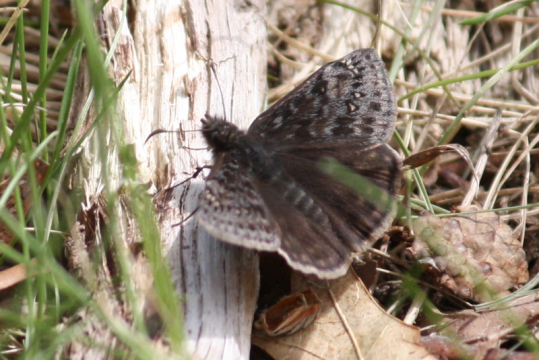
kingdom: Animalia
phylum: Arthropoda
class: Insecta
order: Lepidoptera
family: Hesperiidae
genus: Gesta
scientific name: Gesta
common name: Persius Duskywing
